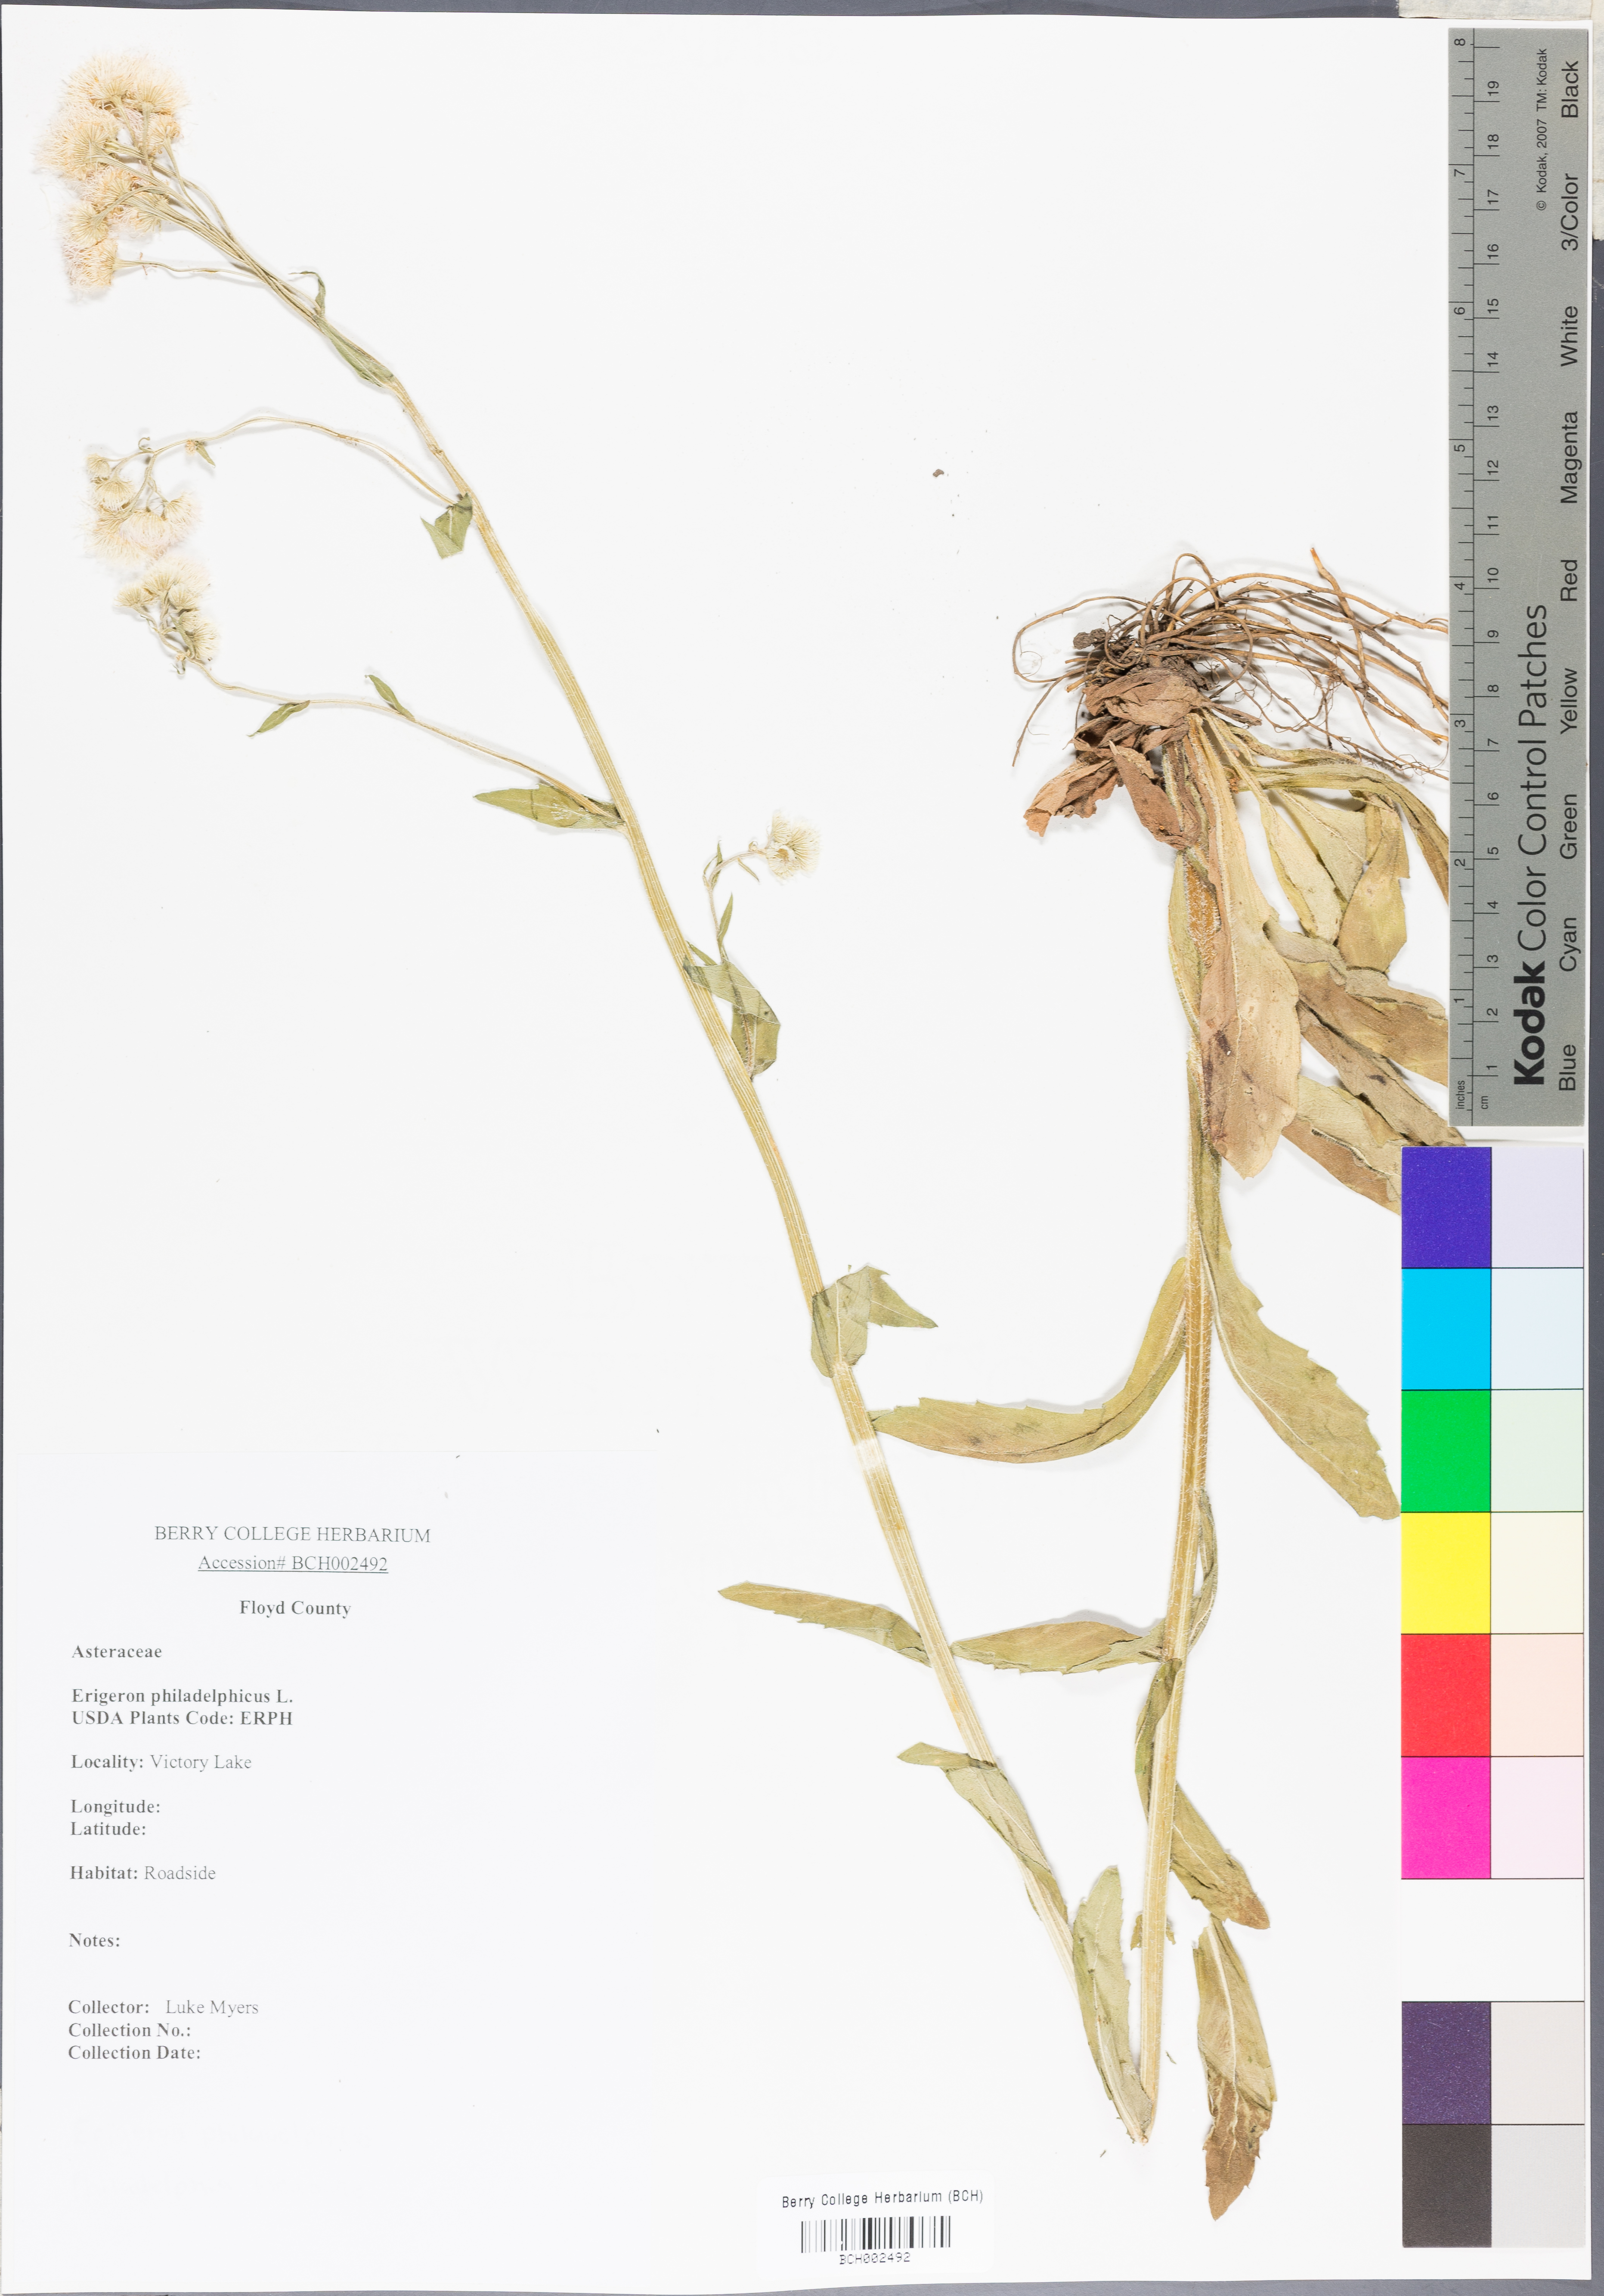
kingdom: Plantae
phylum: Tracheophyta
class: Magnoliopsida
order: Asterales
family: Asteraceae
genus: Erigeron
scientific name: Erigeron philadelphicus
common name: Robin's-plantain
